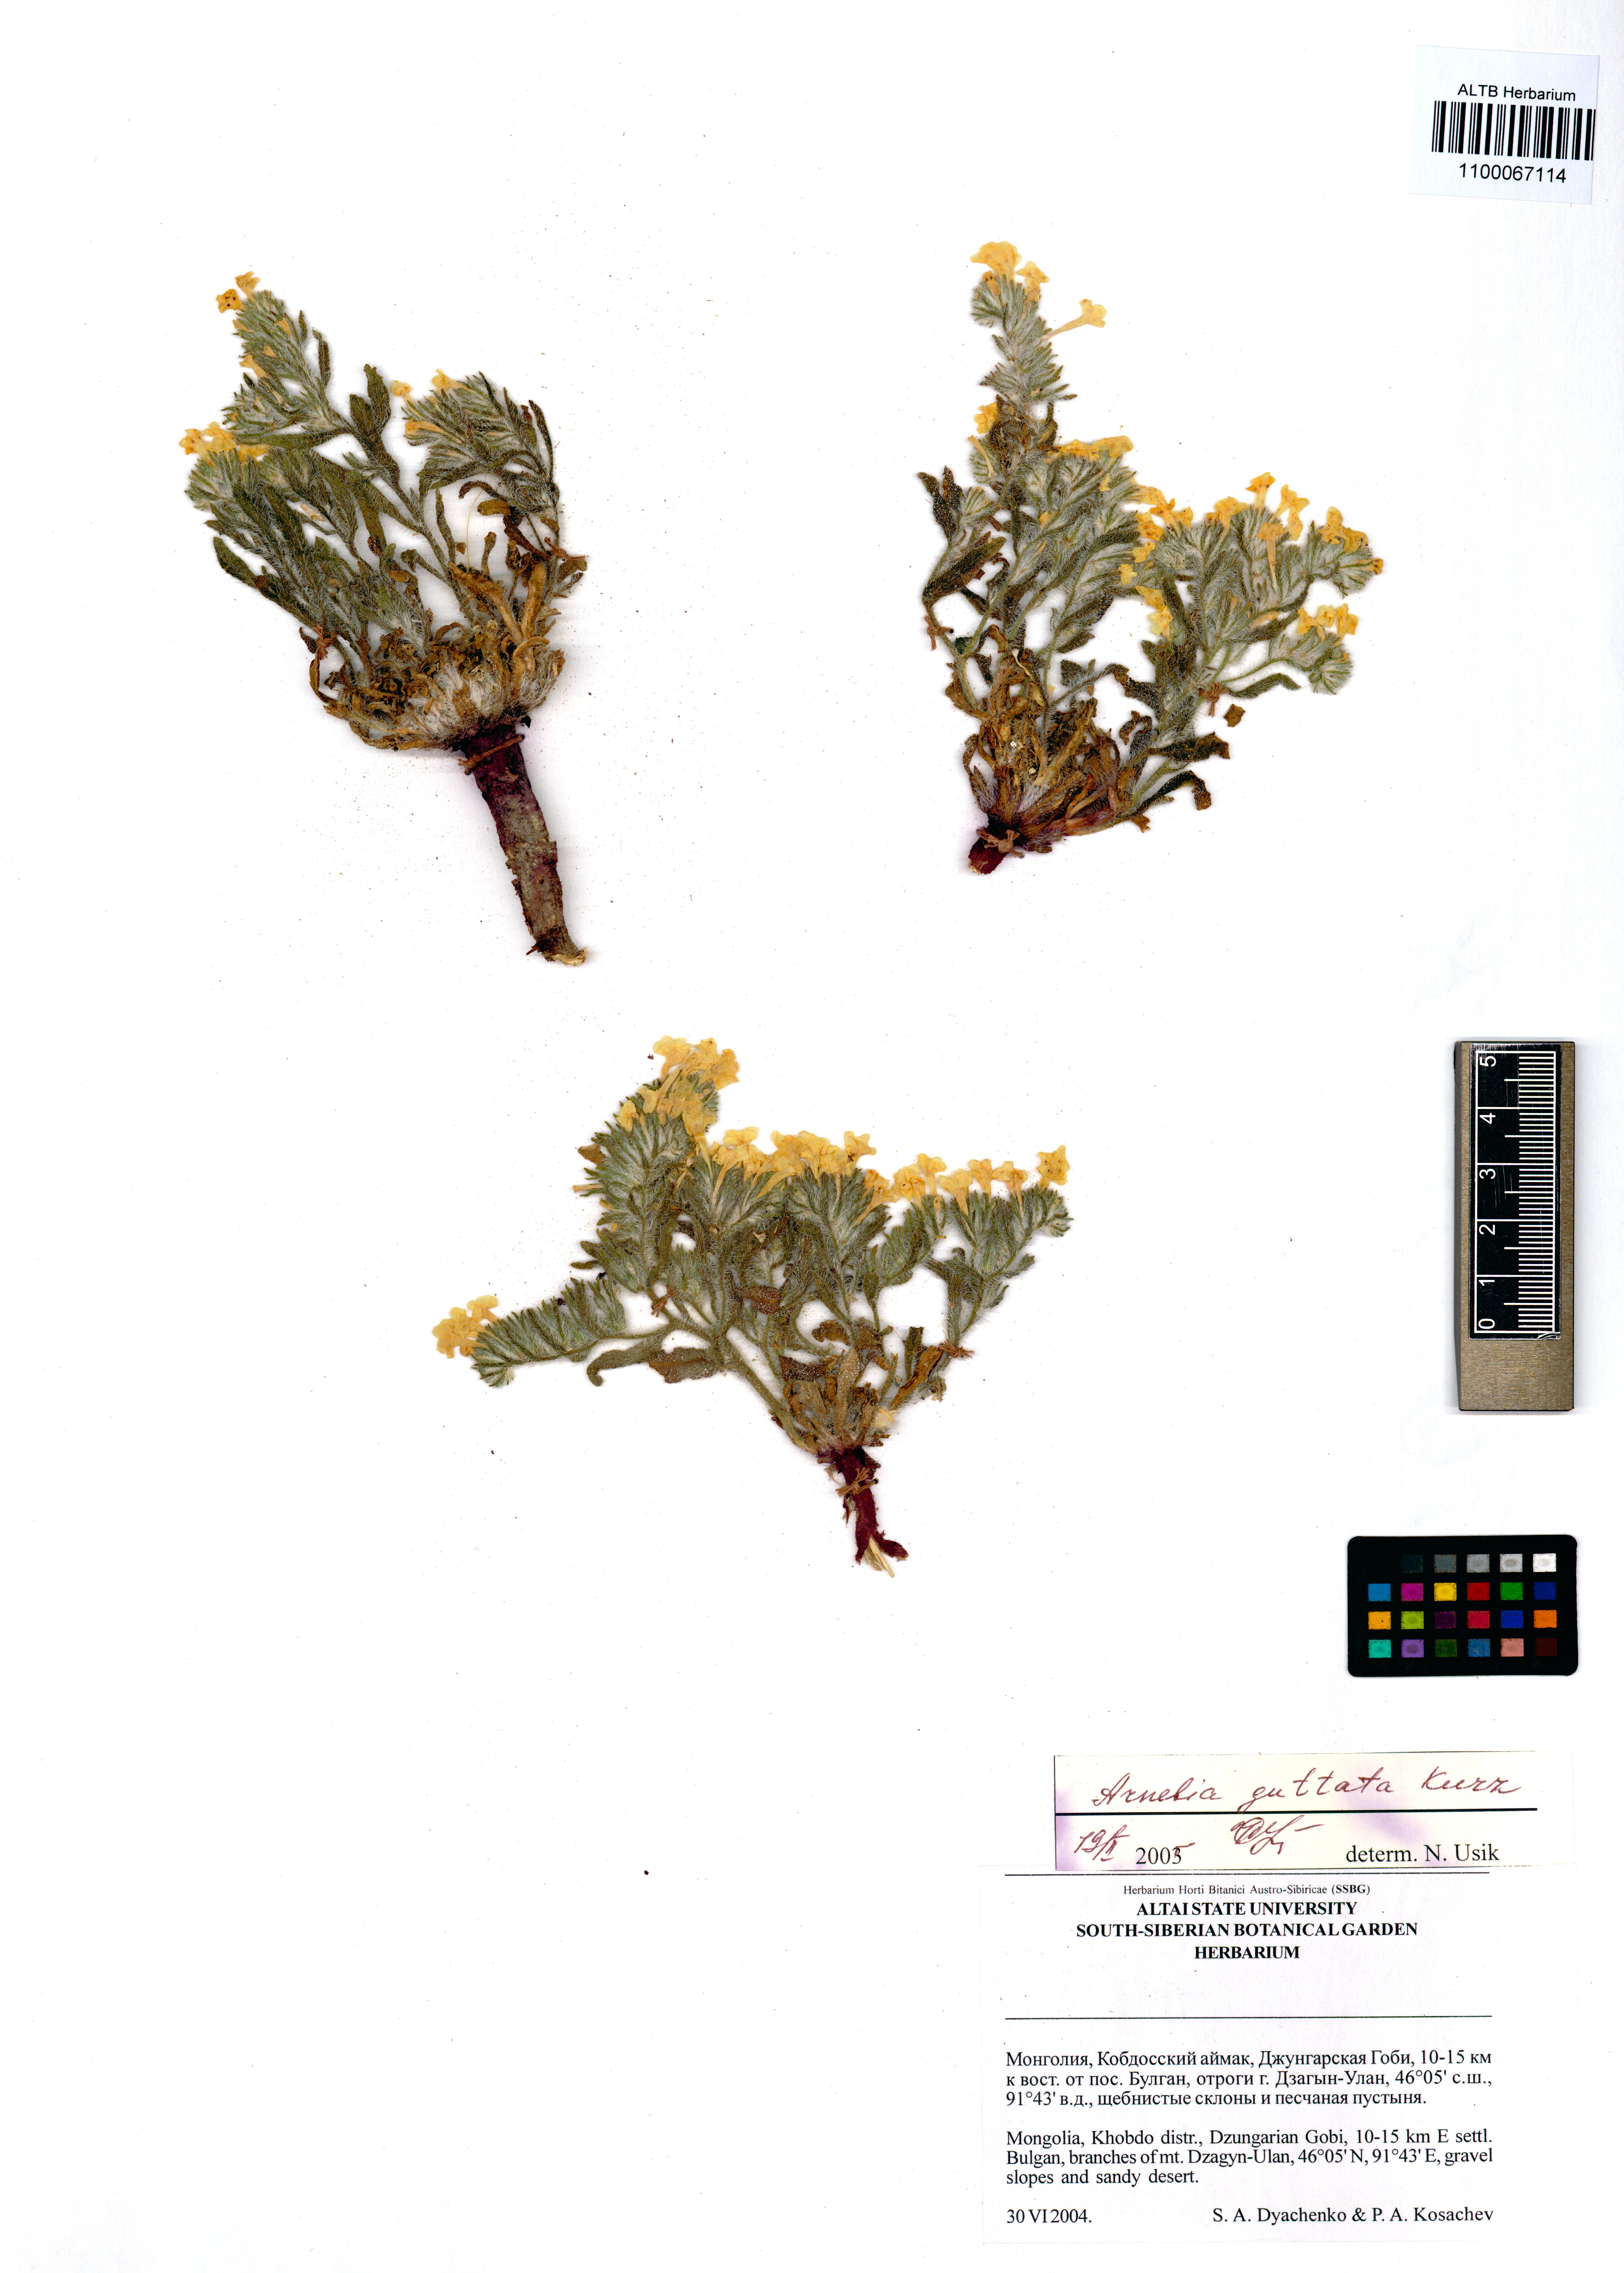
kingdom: Plantae
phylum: Tracheophyta
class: Magnoliopsida
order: Boraginales
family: Boraginaceae
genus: Arnebia
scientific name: Arnebia guttata
